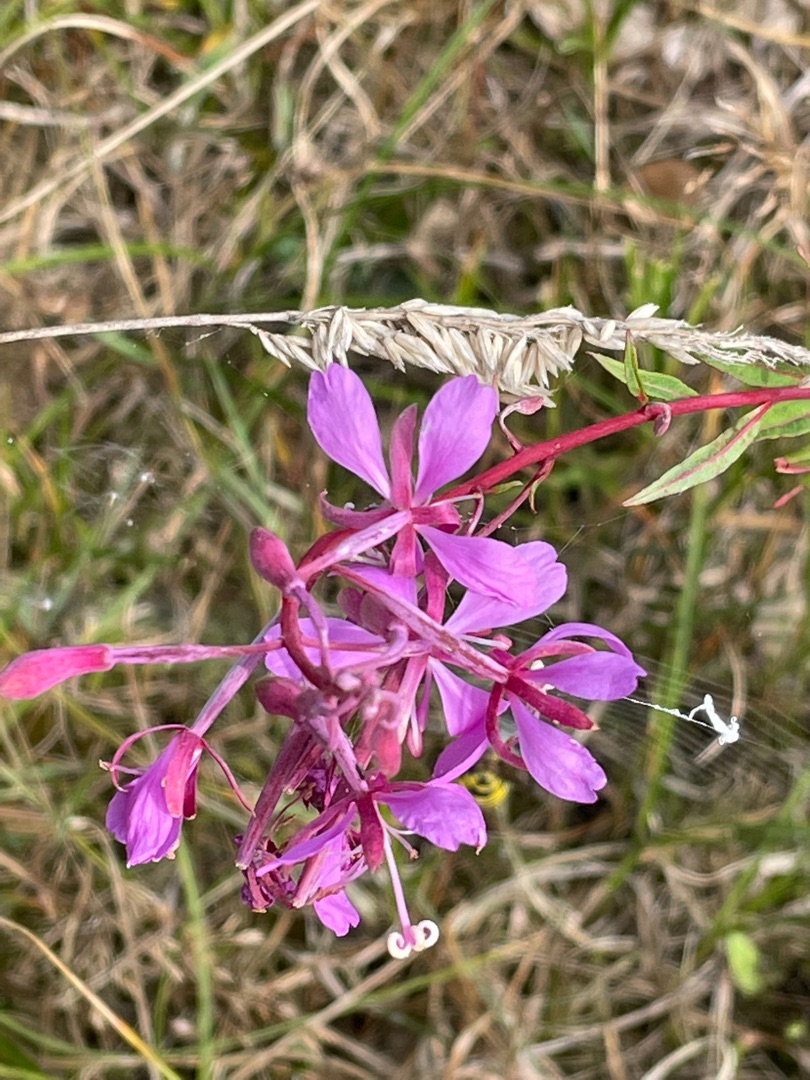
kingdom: Plantae
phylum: Tracheophyta
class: Magnoliopsida
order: Myrtales
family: Onagraceae
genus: Chamaenerion
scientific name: Chamaenerion angustifolium
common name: Gederams
